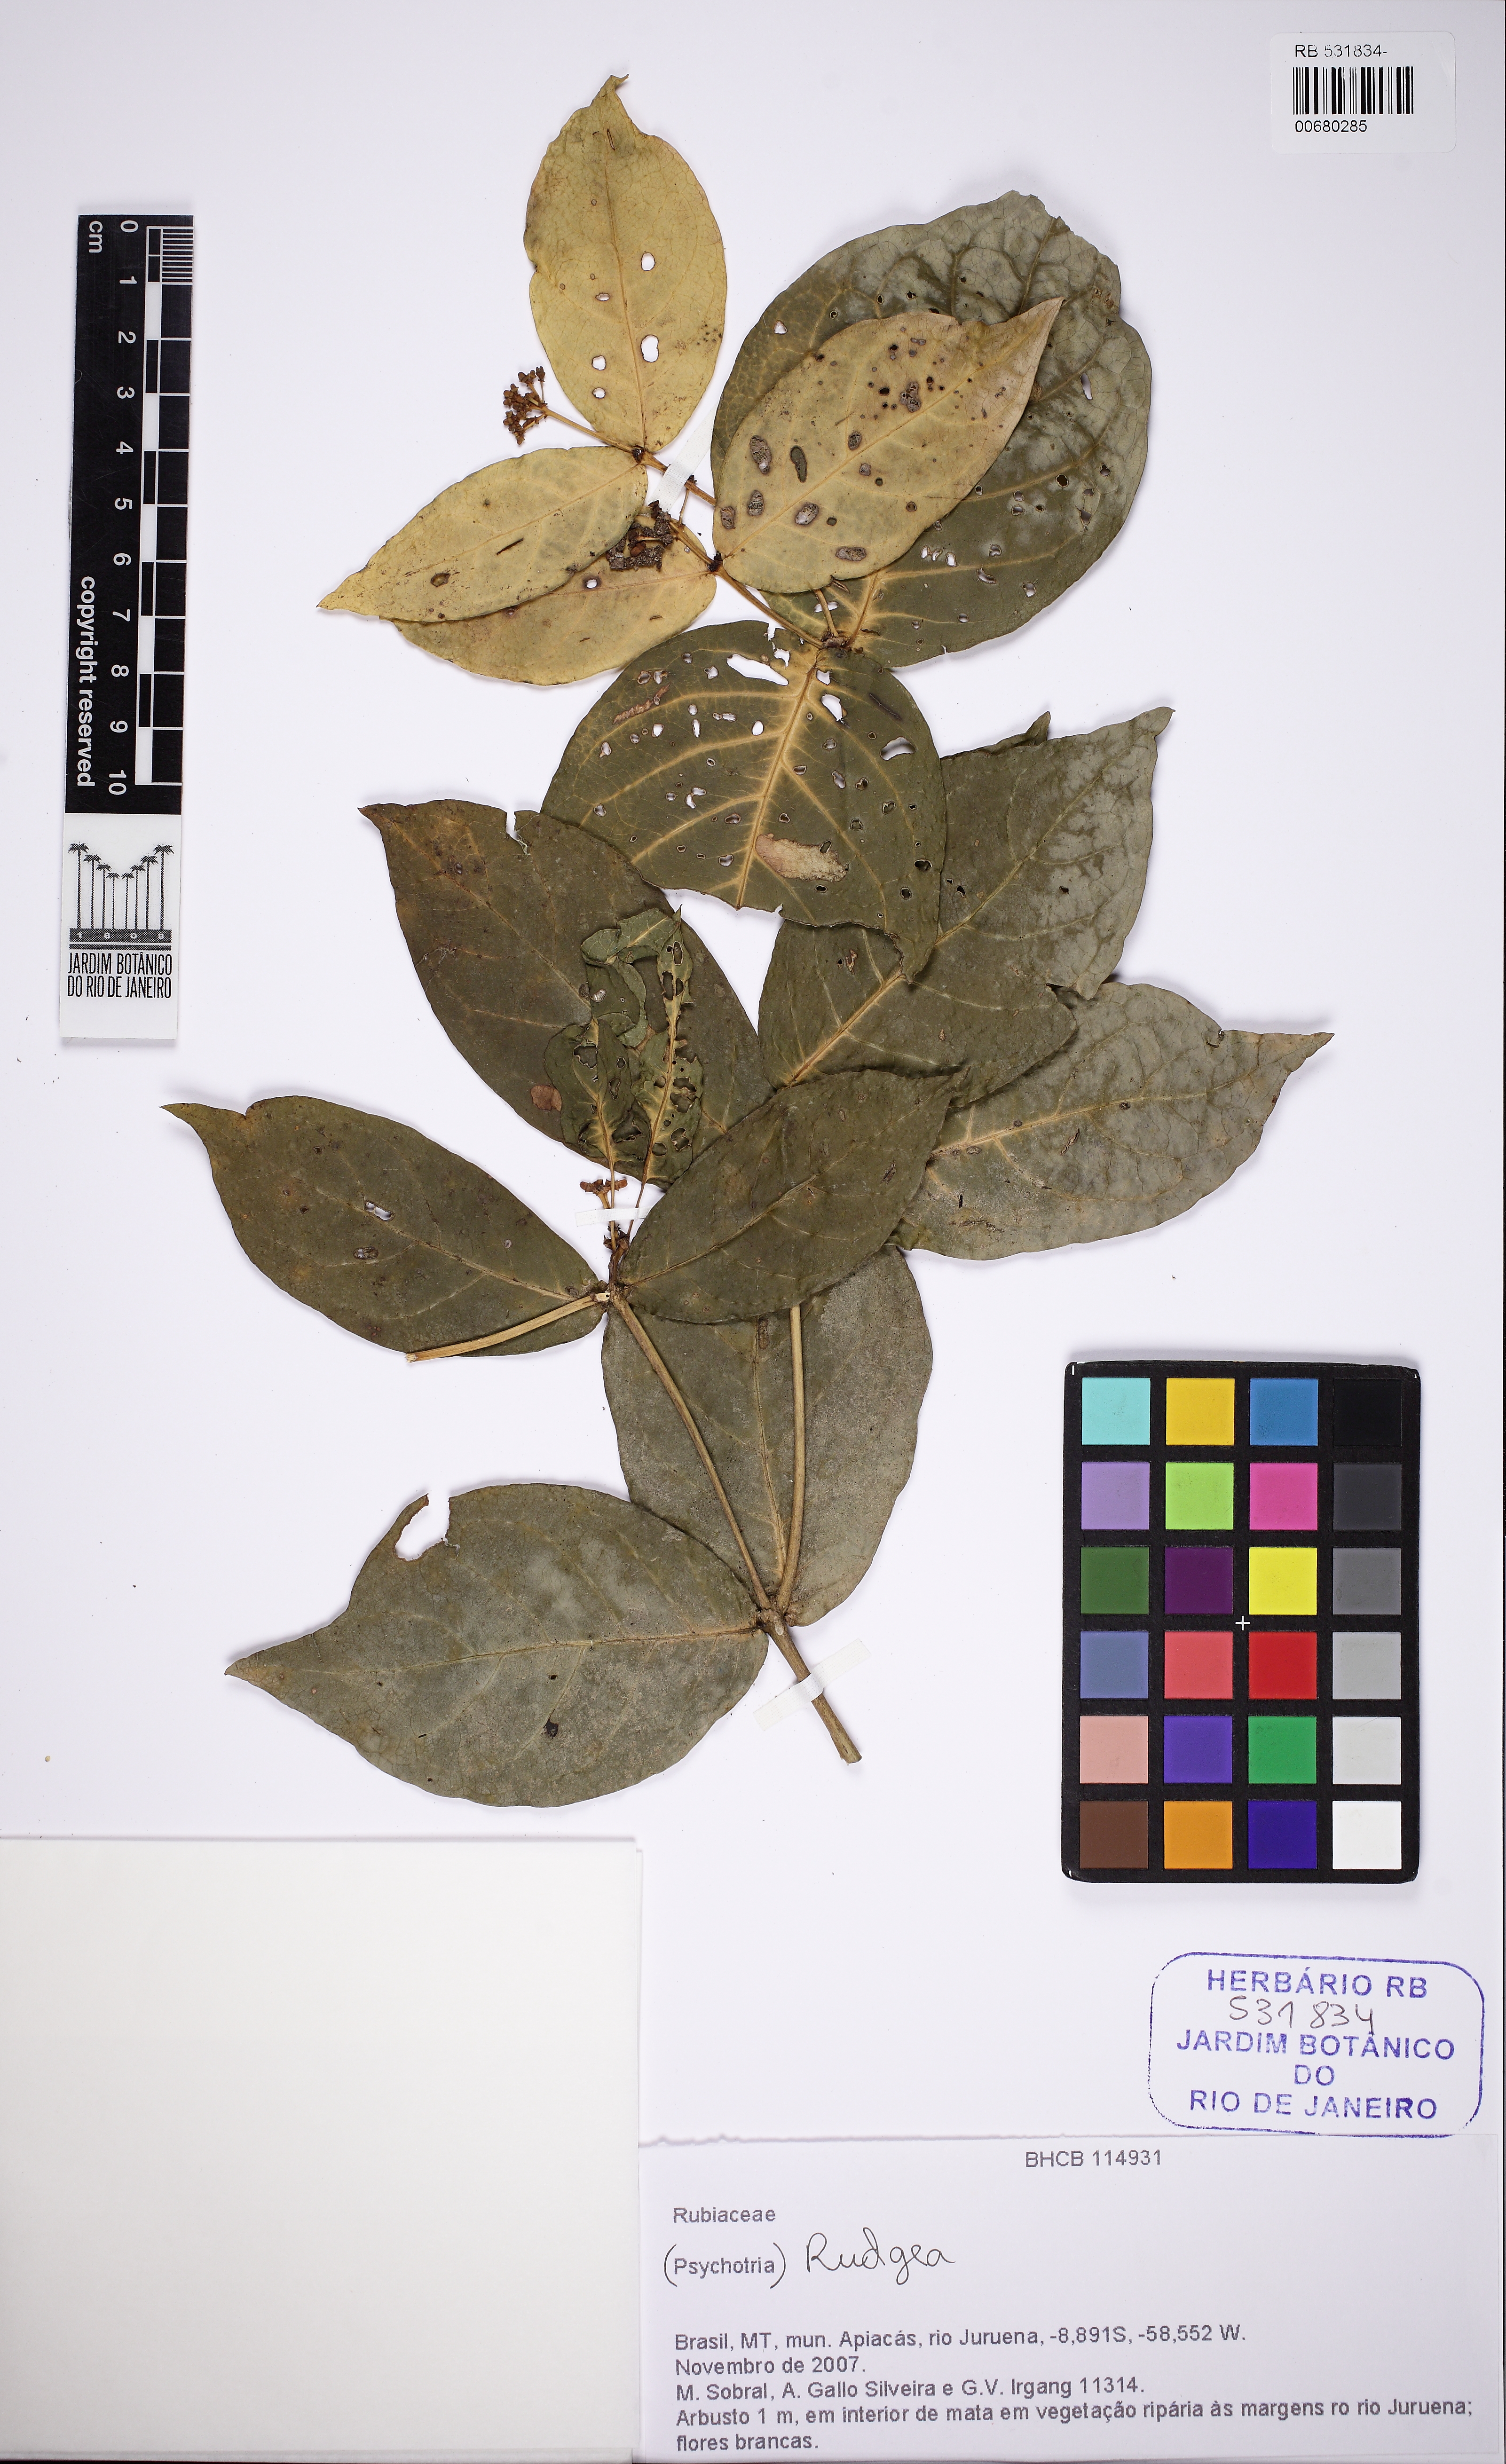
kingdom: Plantae
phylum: Tracheophyta
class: Magnoliopsida
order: Gentianales
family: Rubiaceae
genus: Rudgea
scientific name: Rudgea
